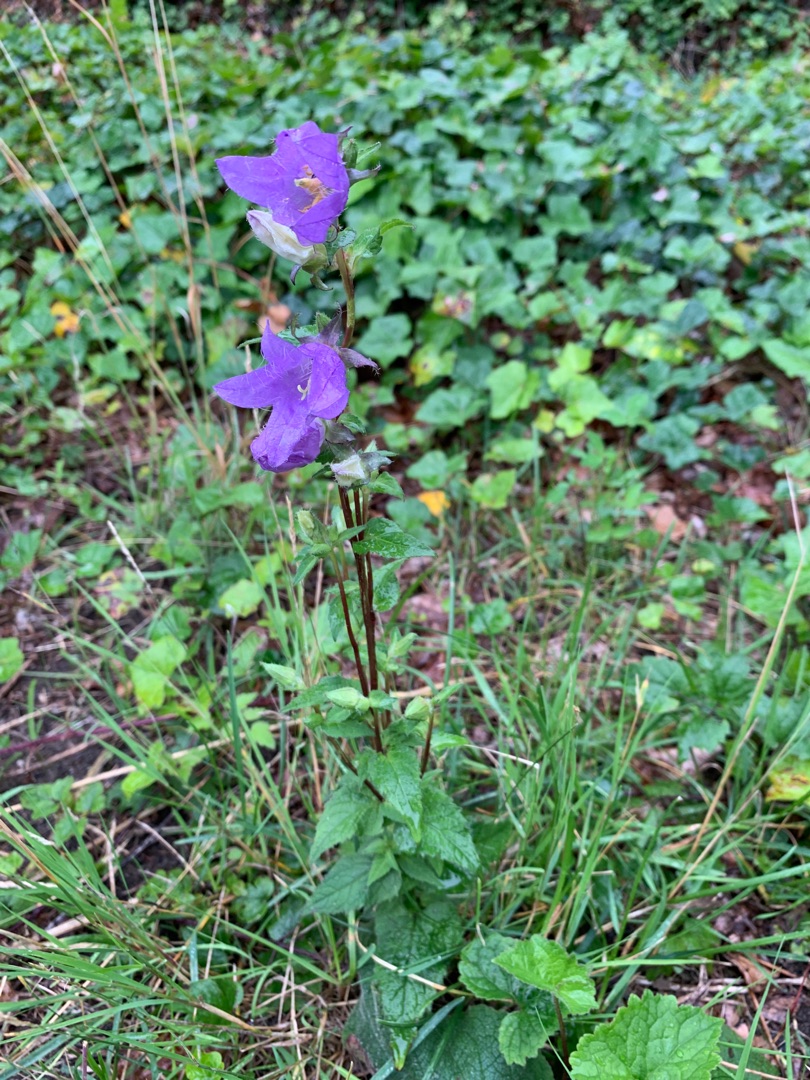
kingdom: Plantae
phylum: Tracheophyta
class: Magnoliopsida
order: Asterales
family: Campanulaceae
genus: Campanula
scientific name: Campanula trachelium
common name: Nælde-klokke
